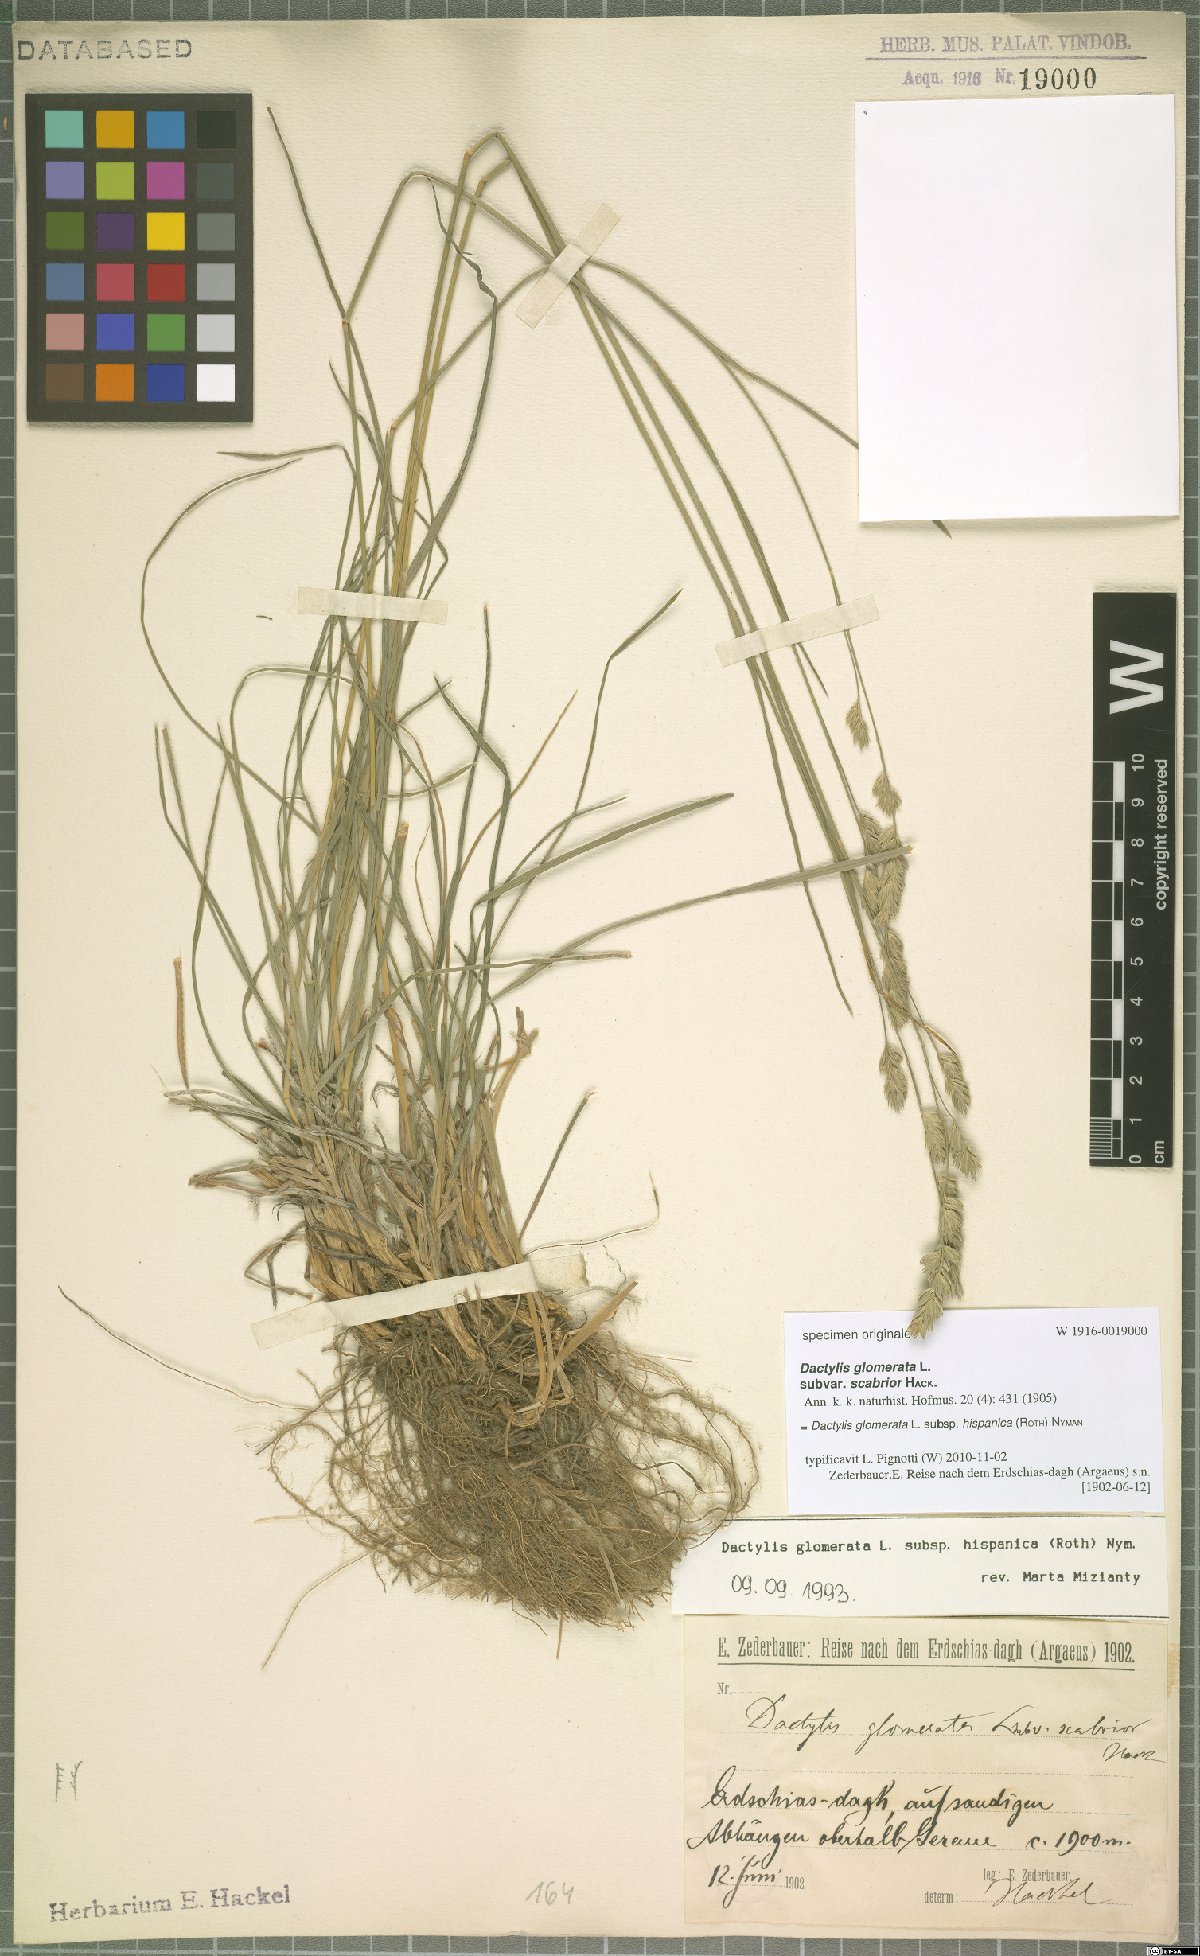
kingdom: Plantae
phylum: Tracheophyta
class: Liliopsida
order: Poales
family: Poaceae
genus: Dactylis
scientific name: Dactylis glomerata
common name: Orchardgrass
